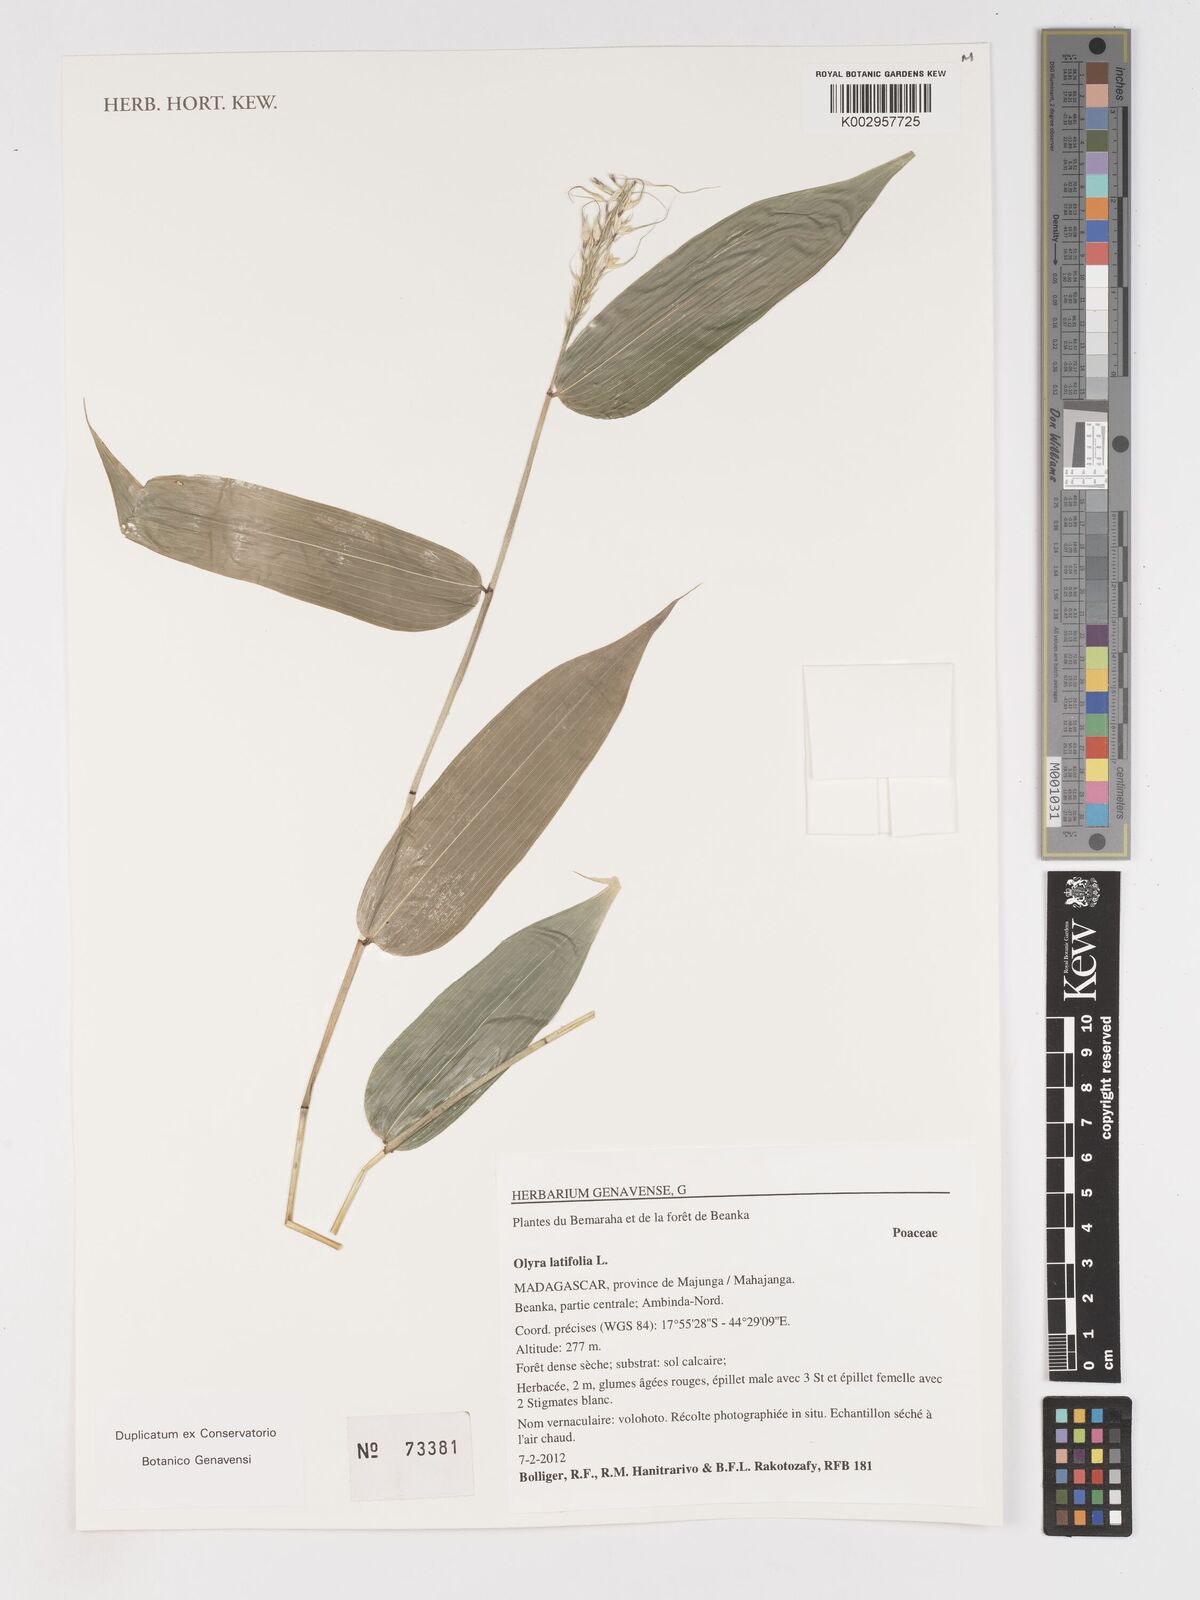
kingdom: Plantae
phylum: Tracheophyta
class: Liliopsida
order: Poales
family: Poaceae
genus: Olyra
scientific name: Olyra latifolia
